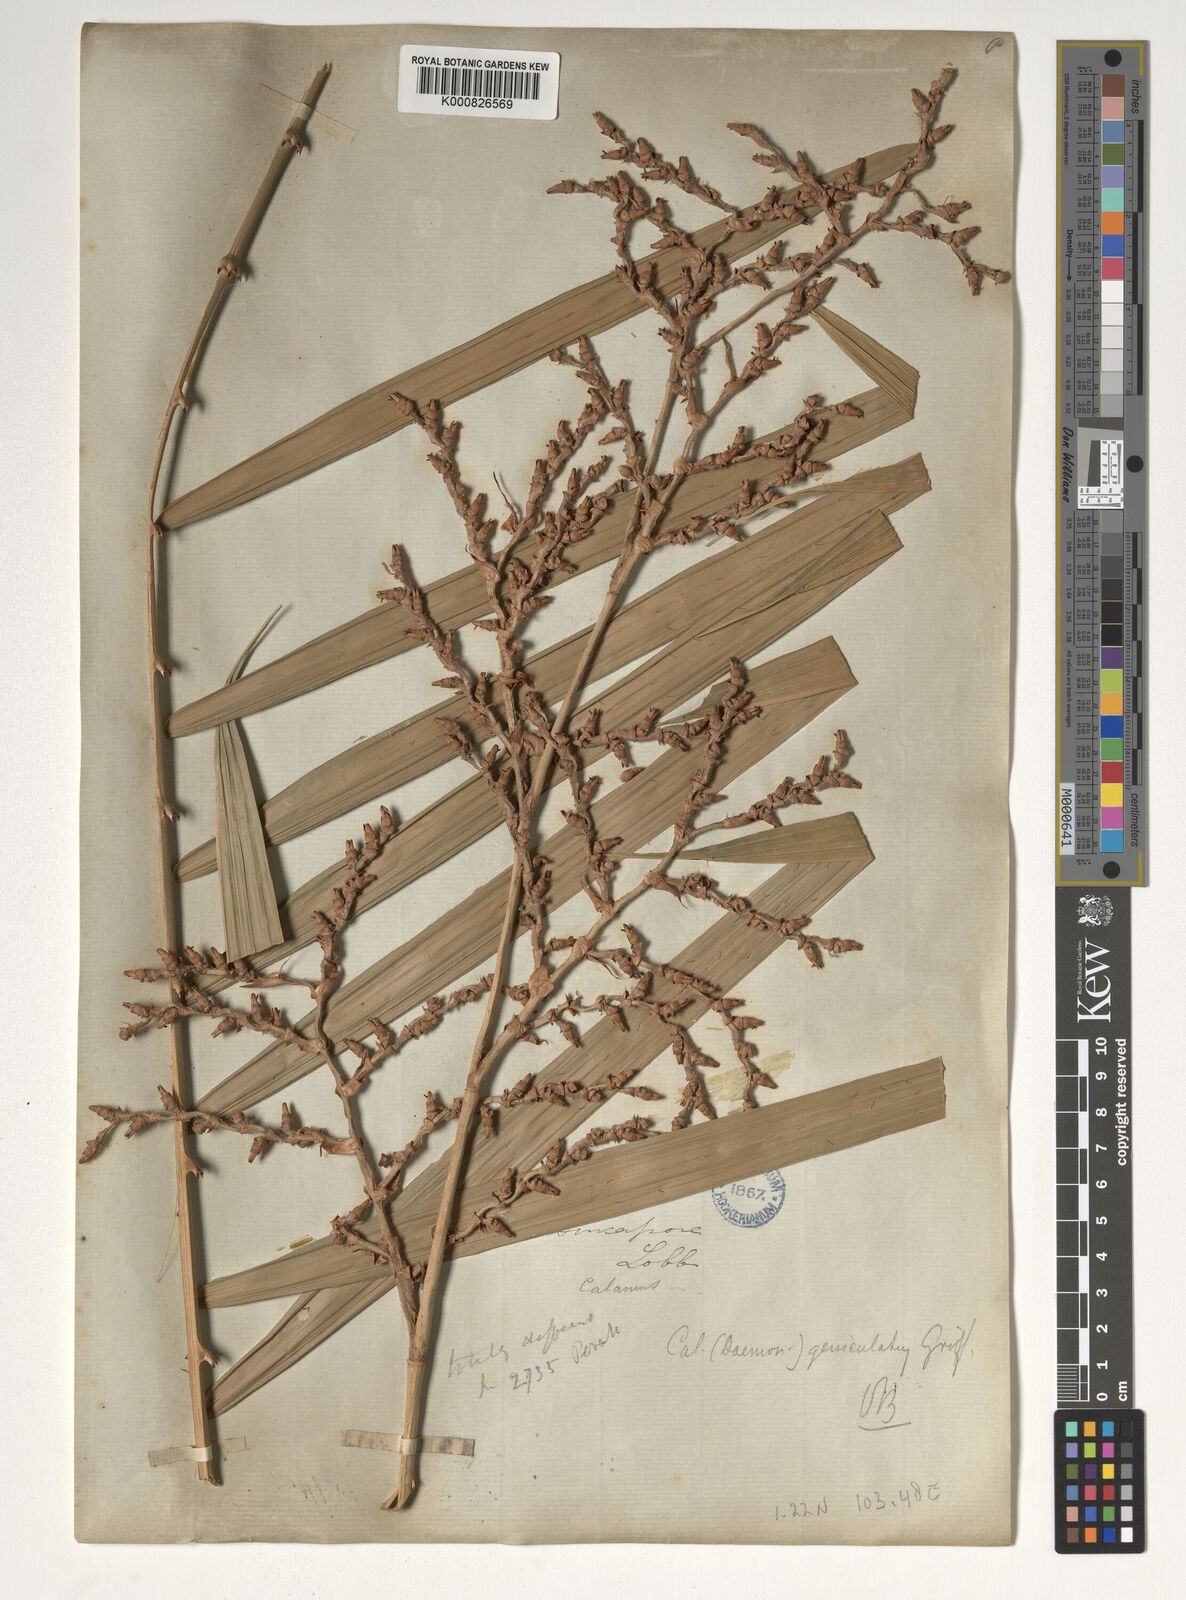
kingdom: Plantae
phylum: Tracheophyta
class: Liliopsida
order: Arecales
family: Arecaceae
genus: Calamus
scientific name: Calamus geniculatus
